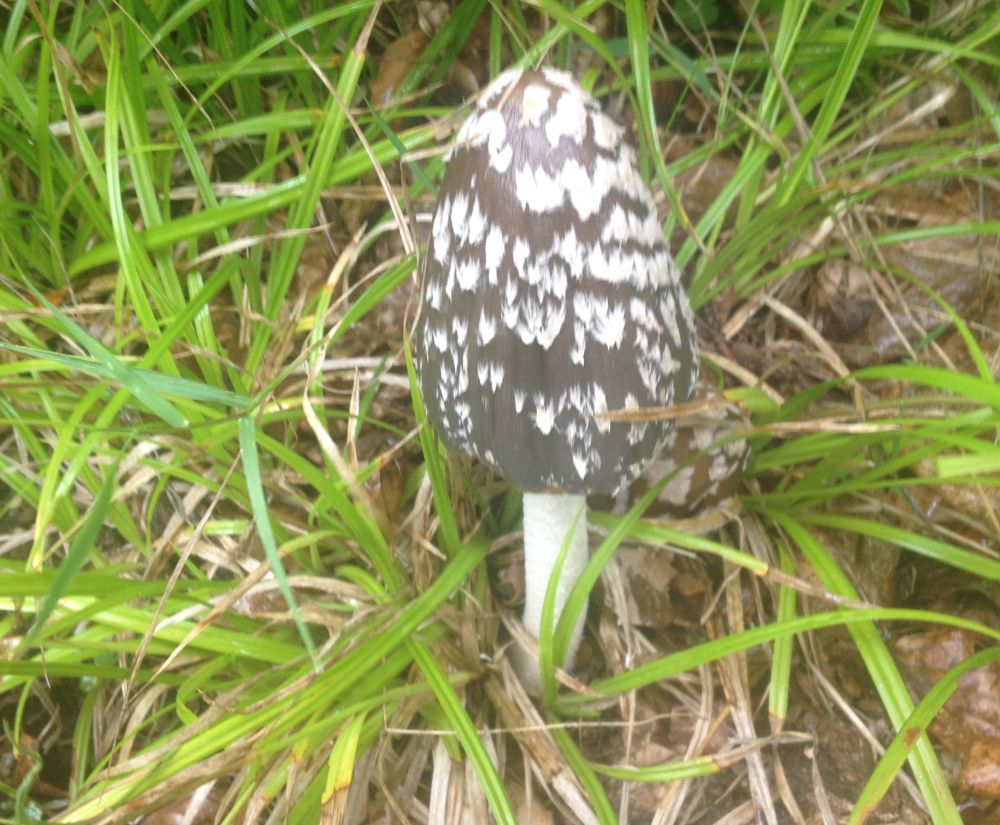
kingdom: Fungi
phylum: Basidiomycota
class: Agaricomycetes
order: Agaricales
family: Psathyrellaceae
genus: Coprinopsis
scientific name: Coprinopsis picacea
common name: skade-blækhat
